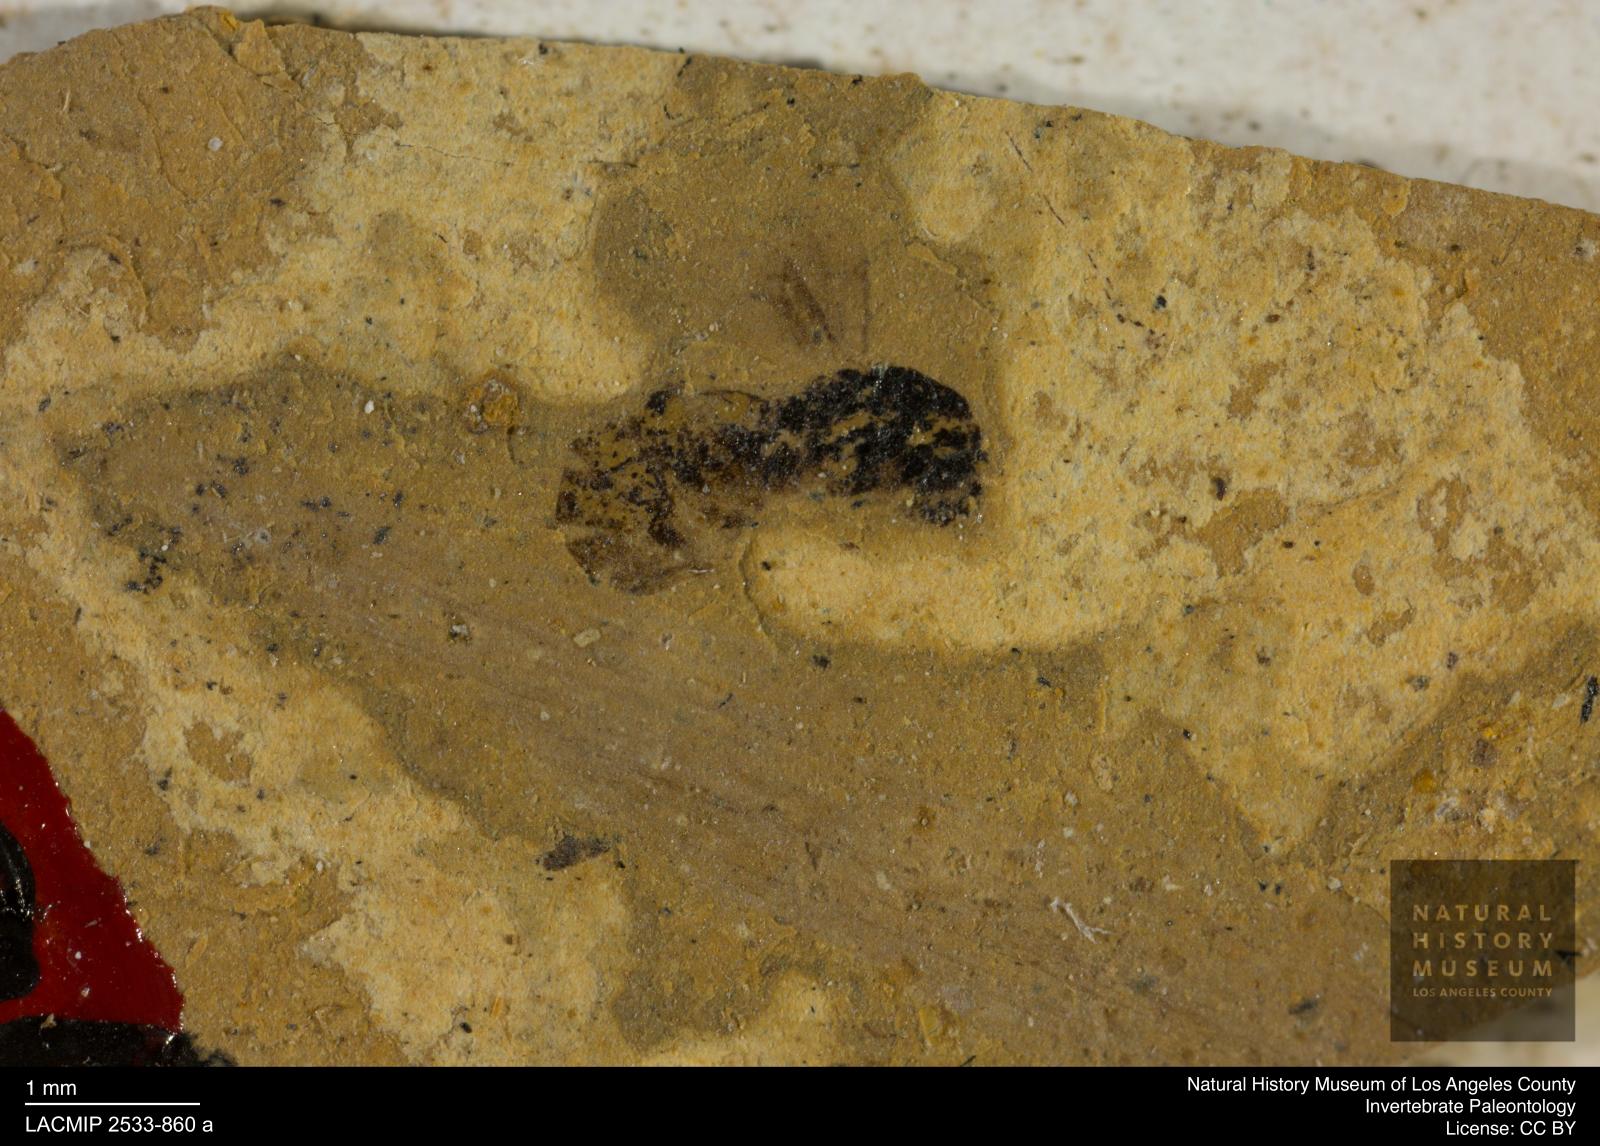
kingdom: Animalia
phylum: Arthropoda
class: Insecta
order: Hymenoptera
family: Pteromalidae
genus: Pteromalus
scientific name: Pteromalus rottensis
